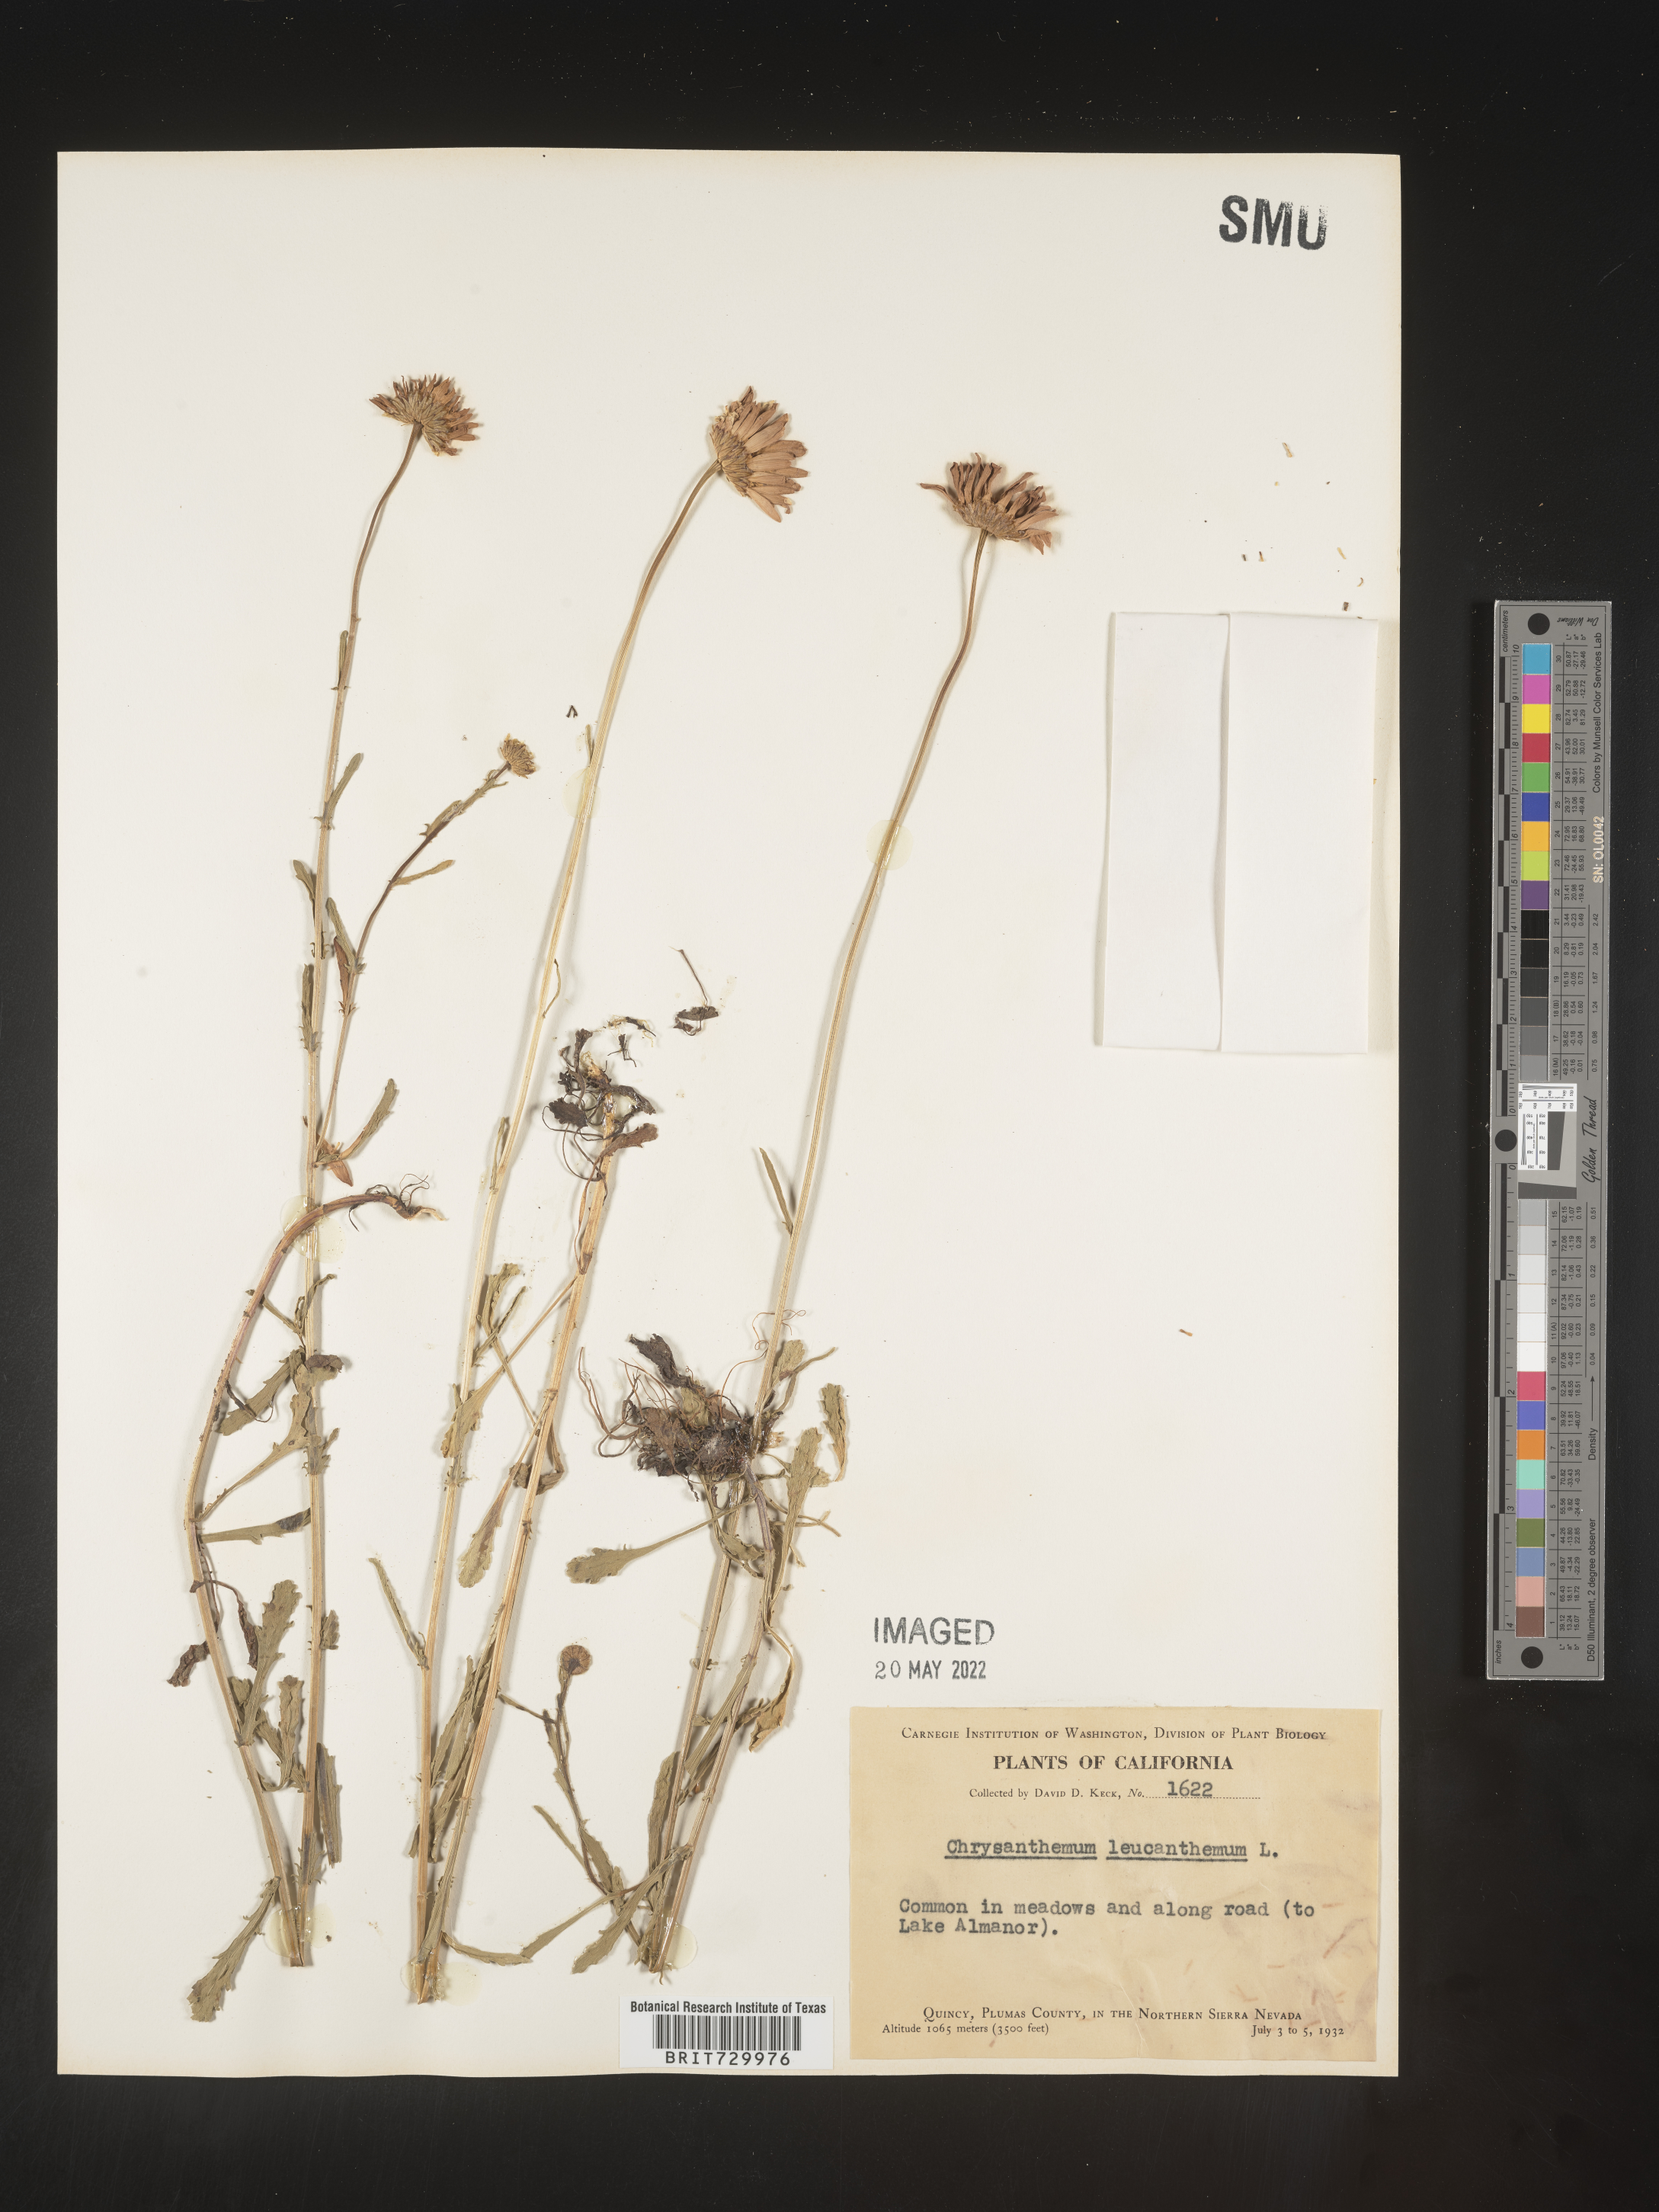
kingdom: Plantae
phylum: Tracheophyta
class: Magnoliopsida
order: Asterales
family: Asteraceae
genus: Leucanthemum
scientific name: Leucanthemum vulgare
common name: Oxeye daisy
